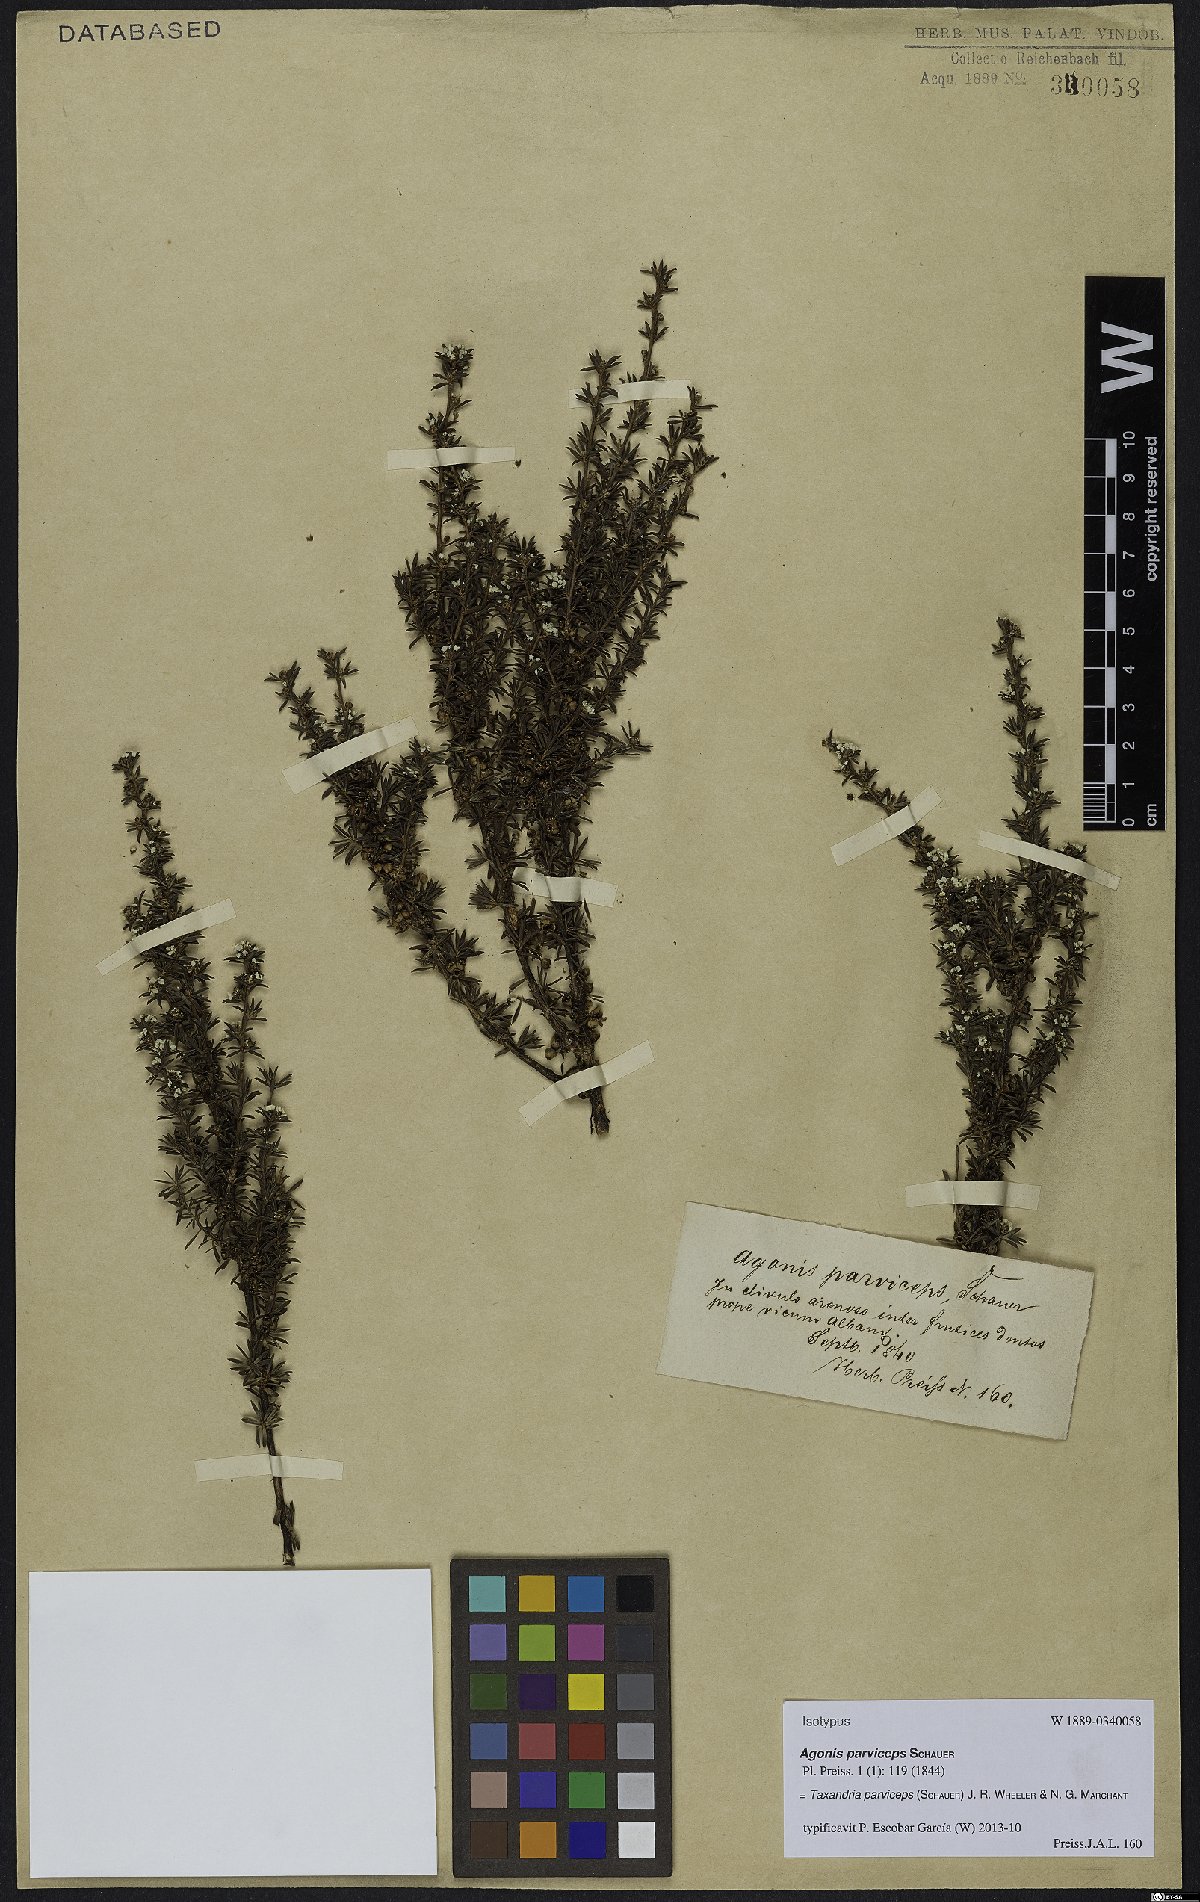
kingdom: Plantae
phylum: Tracheophyta
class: Magnoliopsida
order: Myrtales
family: Myrtaceae
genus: Taxandria
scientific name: Taxandria parviceps
